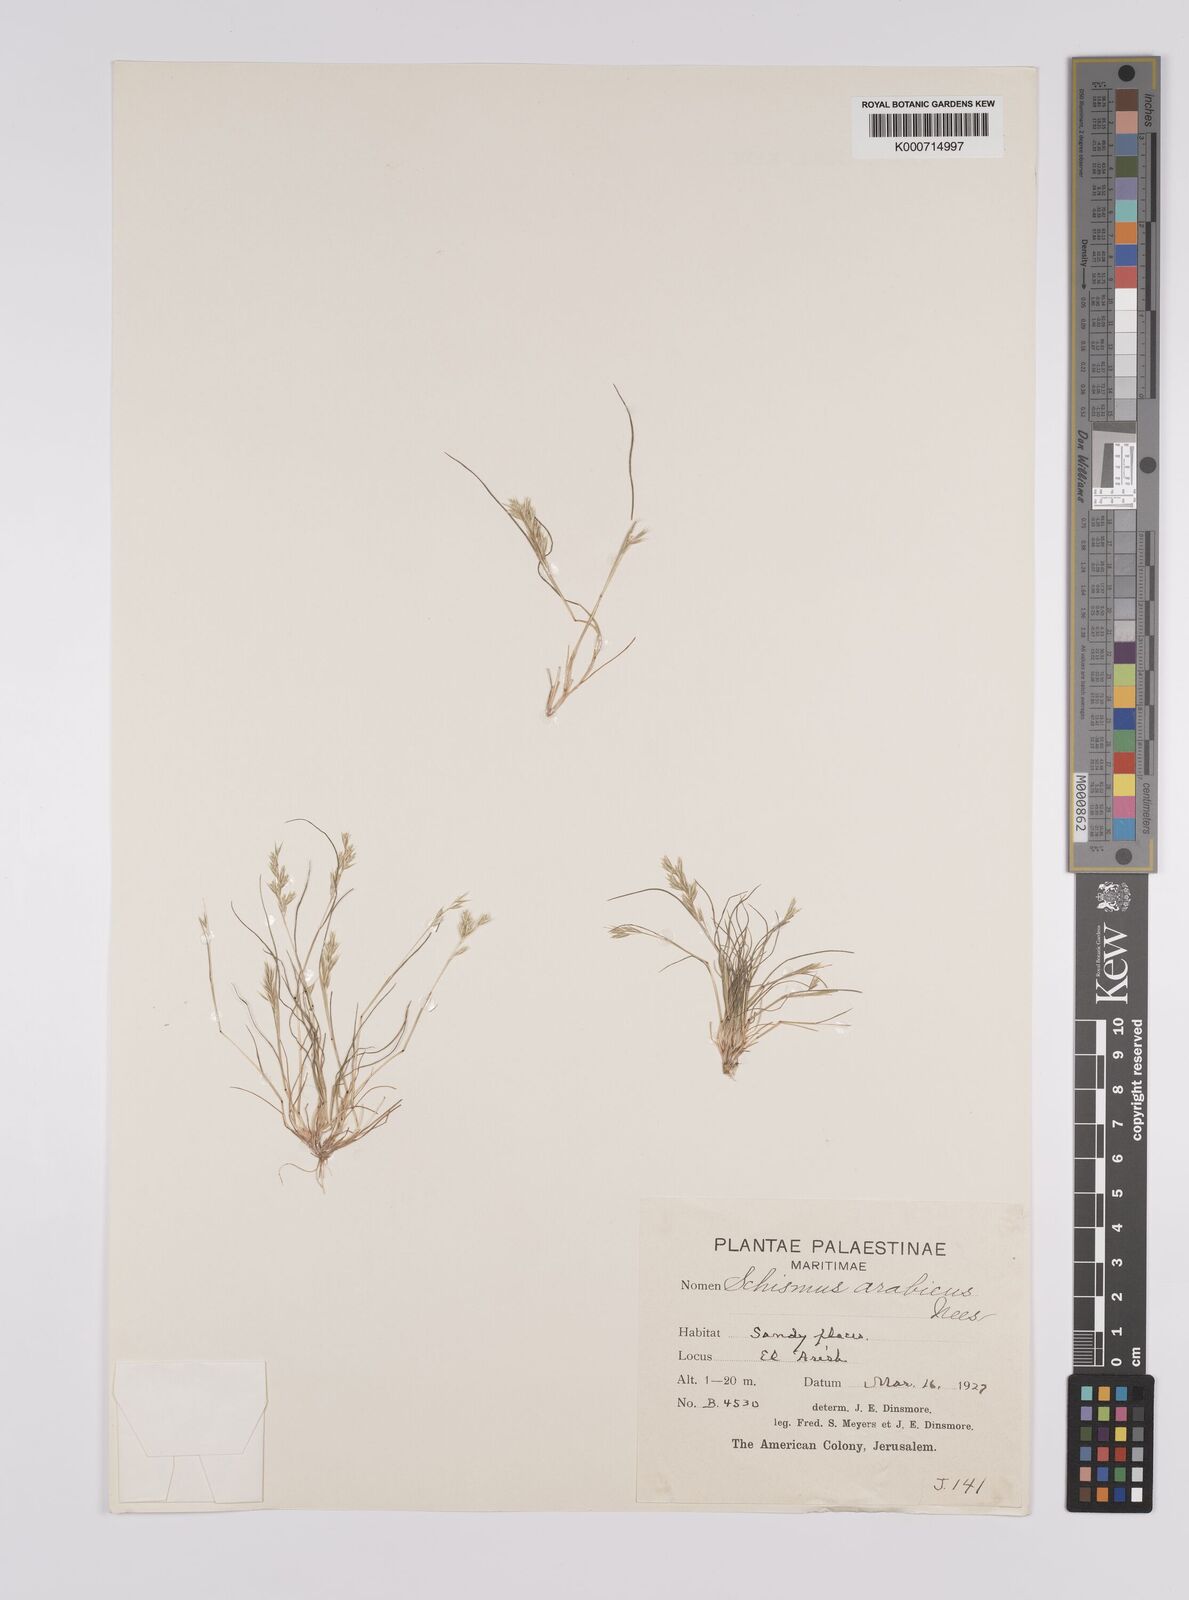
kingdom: Plantae
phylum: Tracheophyta
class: Liliopsida
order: Poales
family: Poaceae
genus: Schismus
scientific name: Schismus arabicus
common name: Arabian schismus
